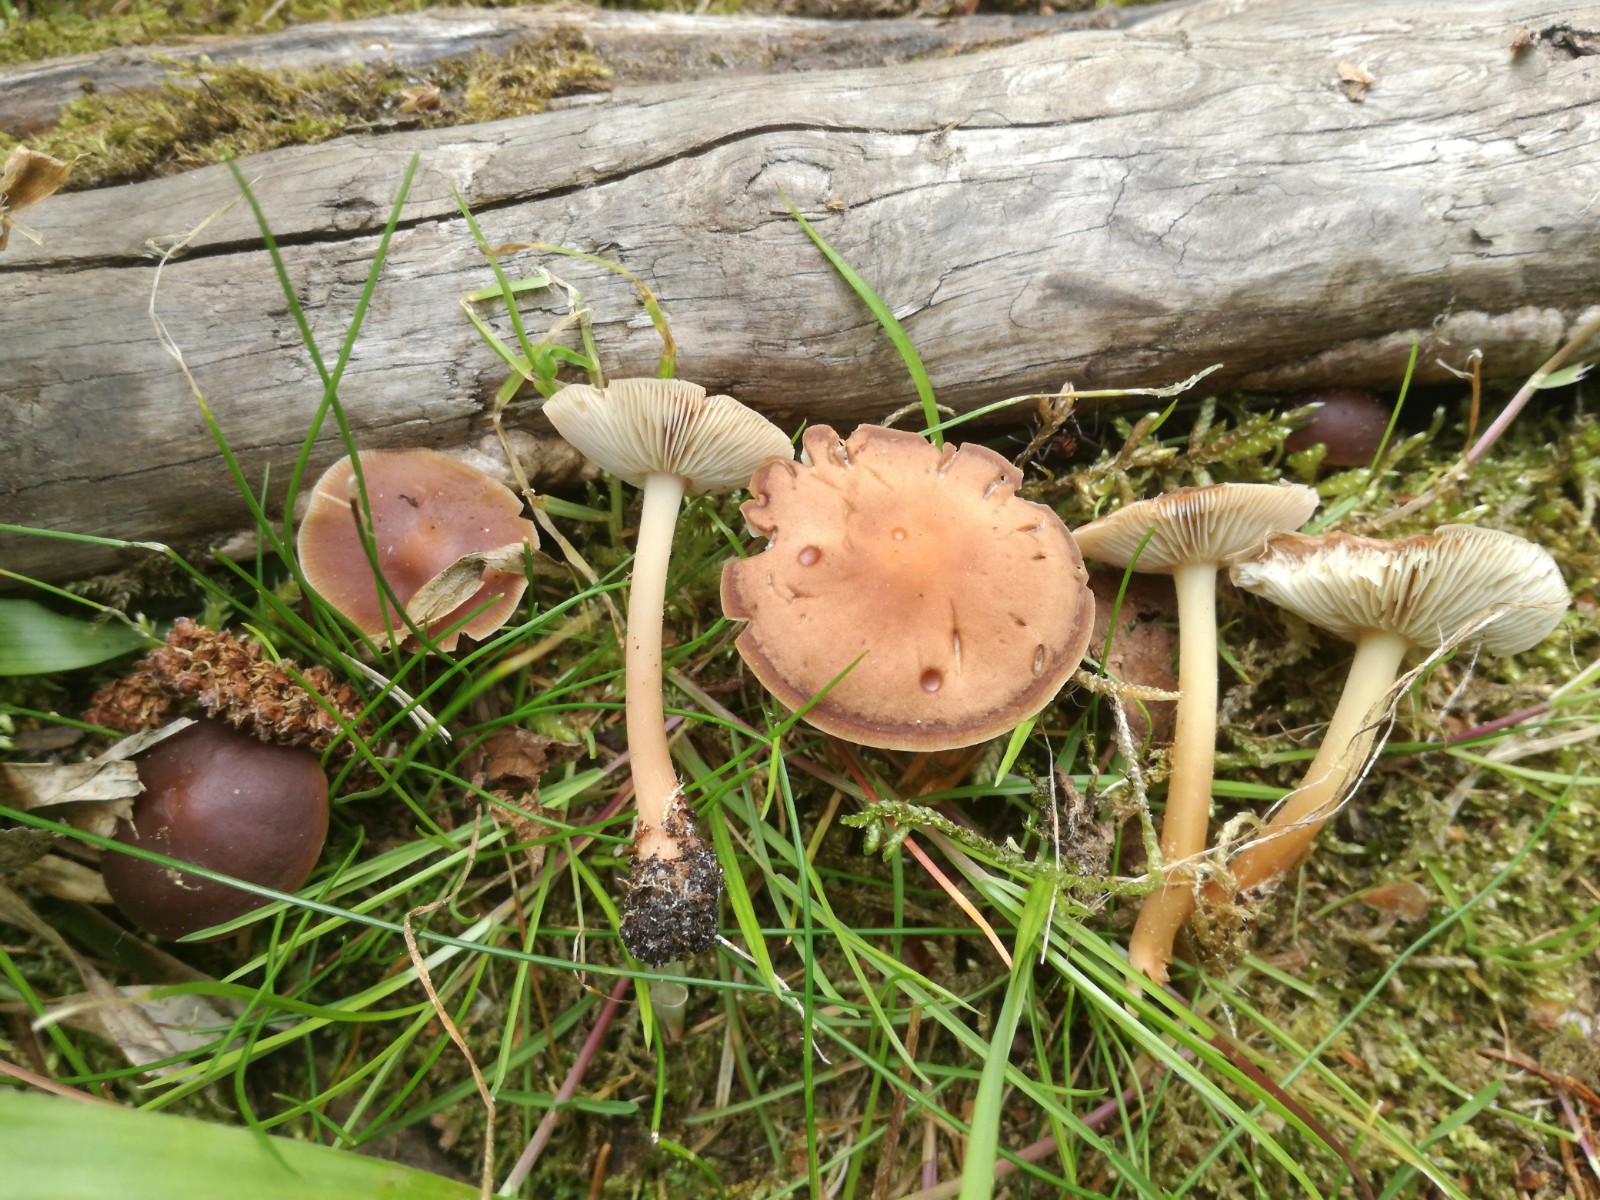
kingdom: Fungi
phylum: Basidiomycota
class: Agaricomycetes
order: Agaricales
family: Omphalotaceae
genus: Gymnopus
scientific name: Gymnopus ocior
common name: mørk fladhat
